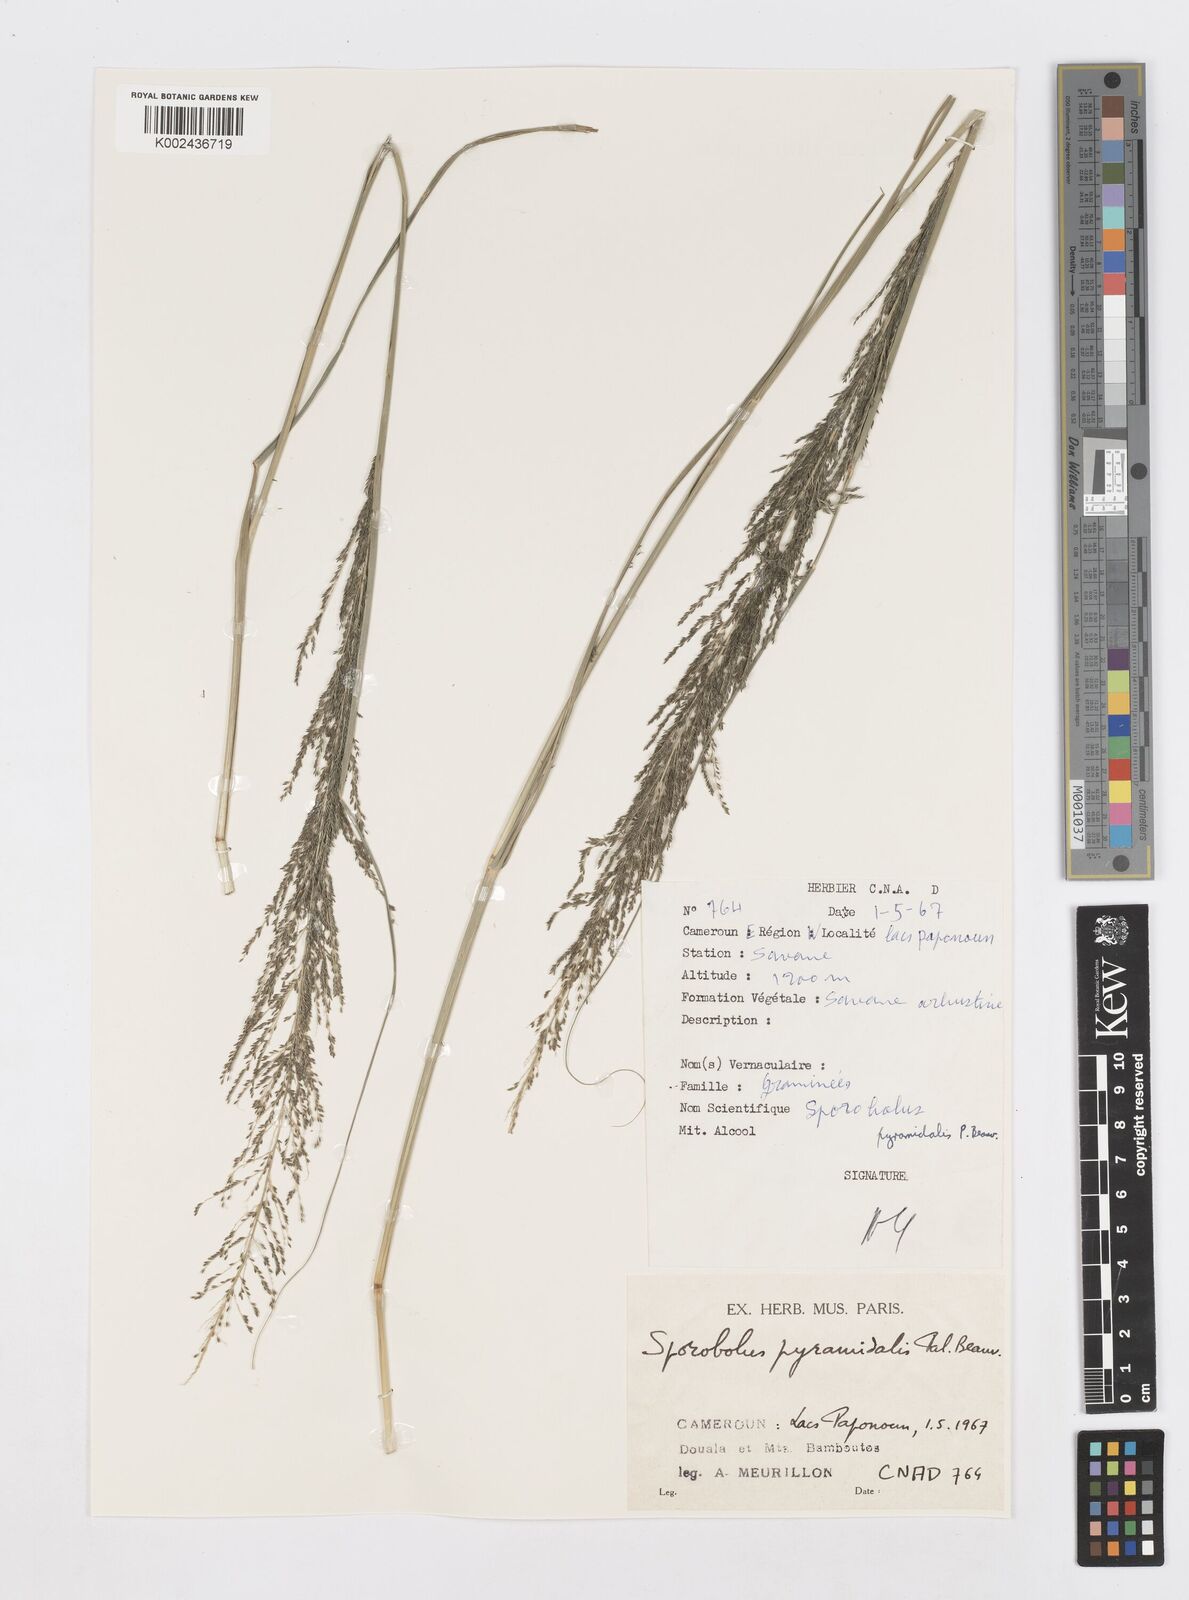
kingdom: Plantae
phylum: Tracheophyta
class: Liliopsida
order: Poales
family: Poaceae
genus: Sporobolus
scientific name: Sporobolus pyramidalis
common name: West indian dropseed
